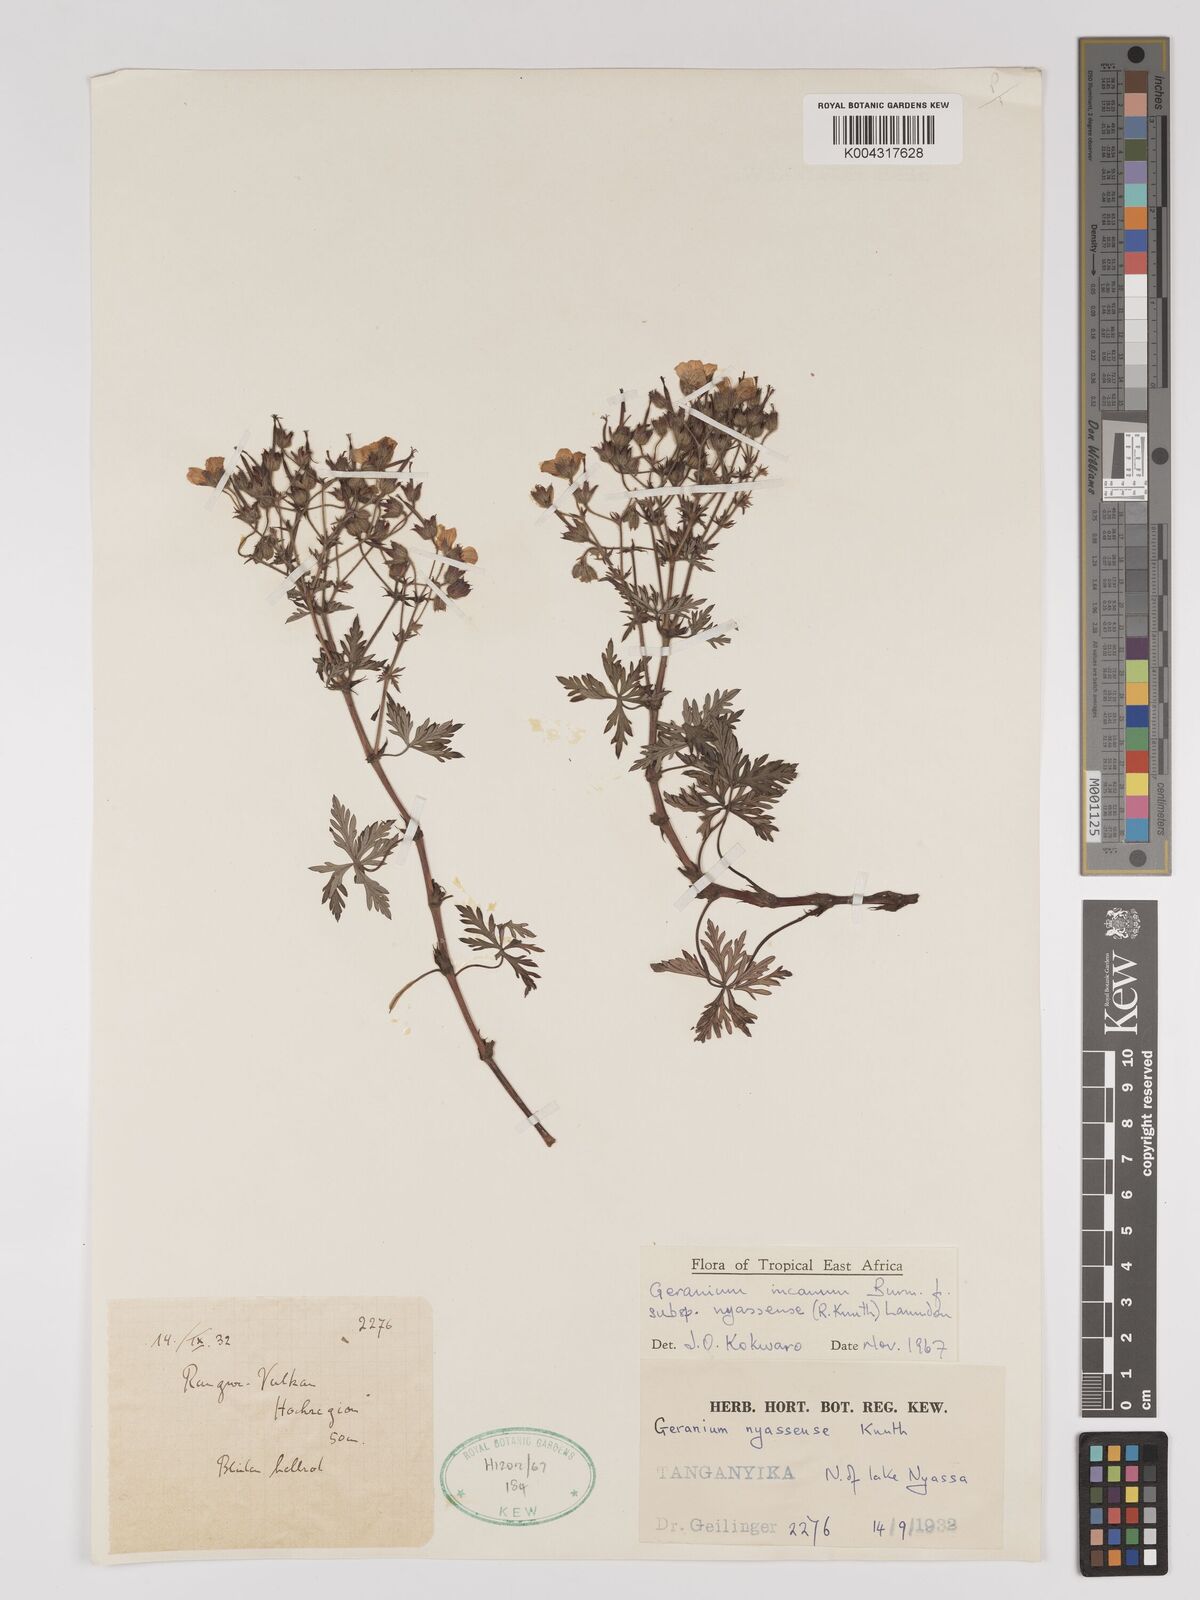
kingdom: Plantae
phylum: Tracheophyta
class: Magnoliopsida
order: Geraniales
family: Geraniaceae
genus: Geranium
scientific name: Geranium incanum
